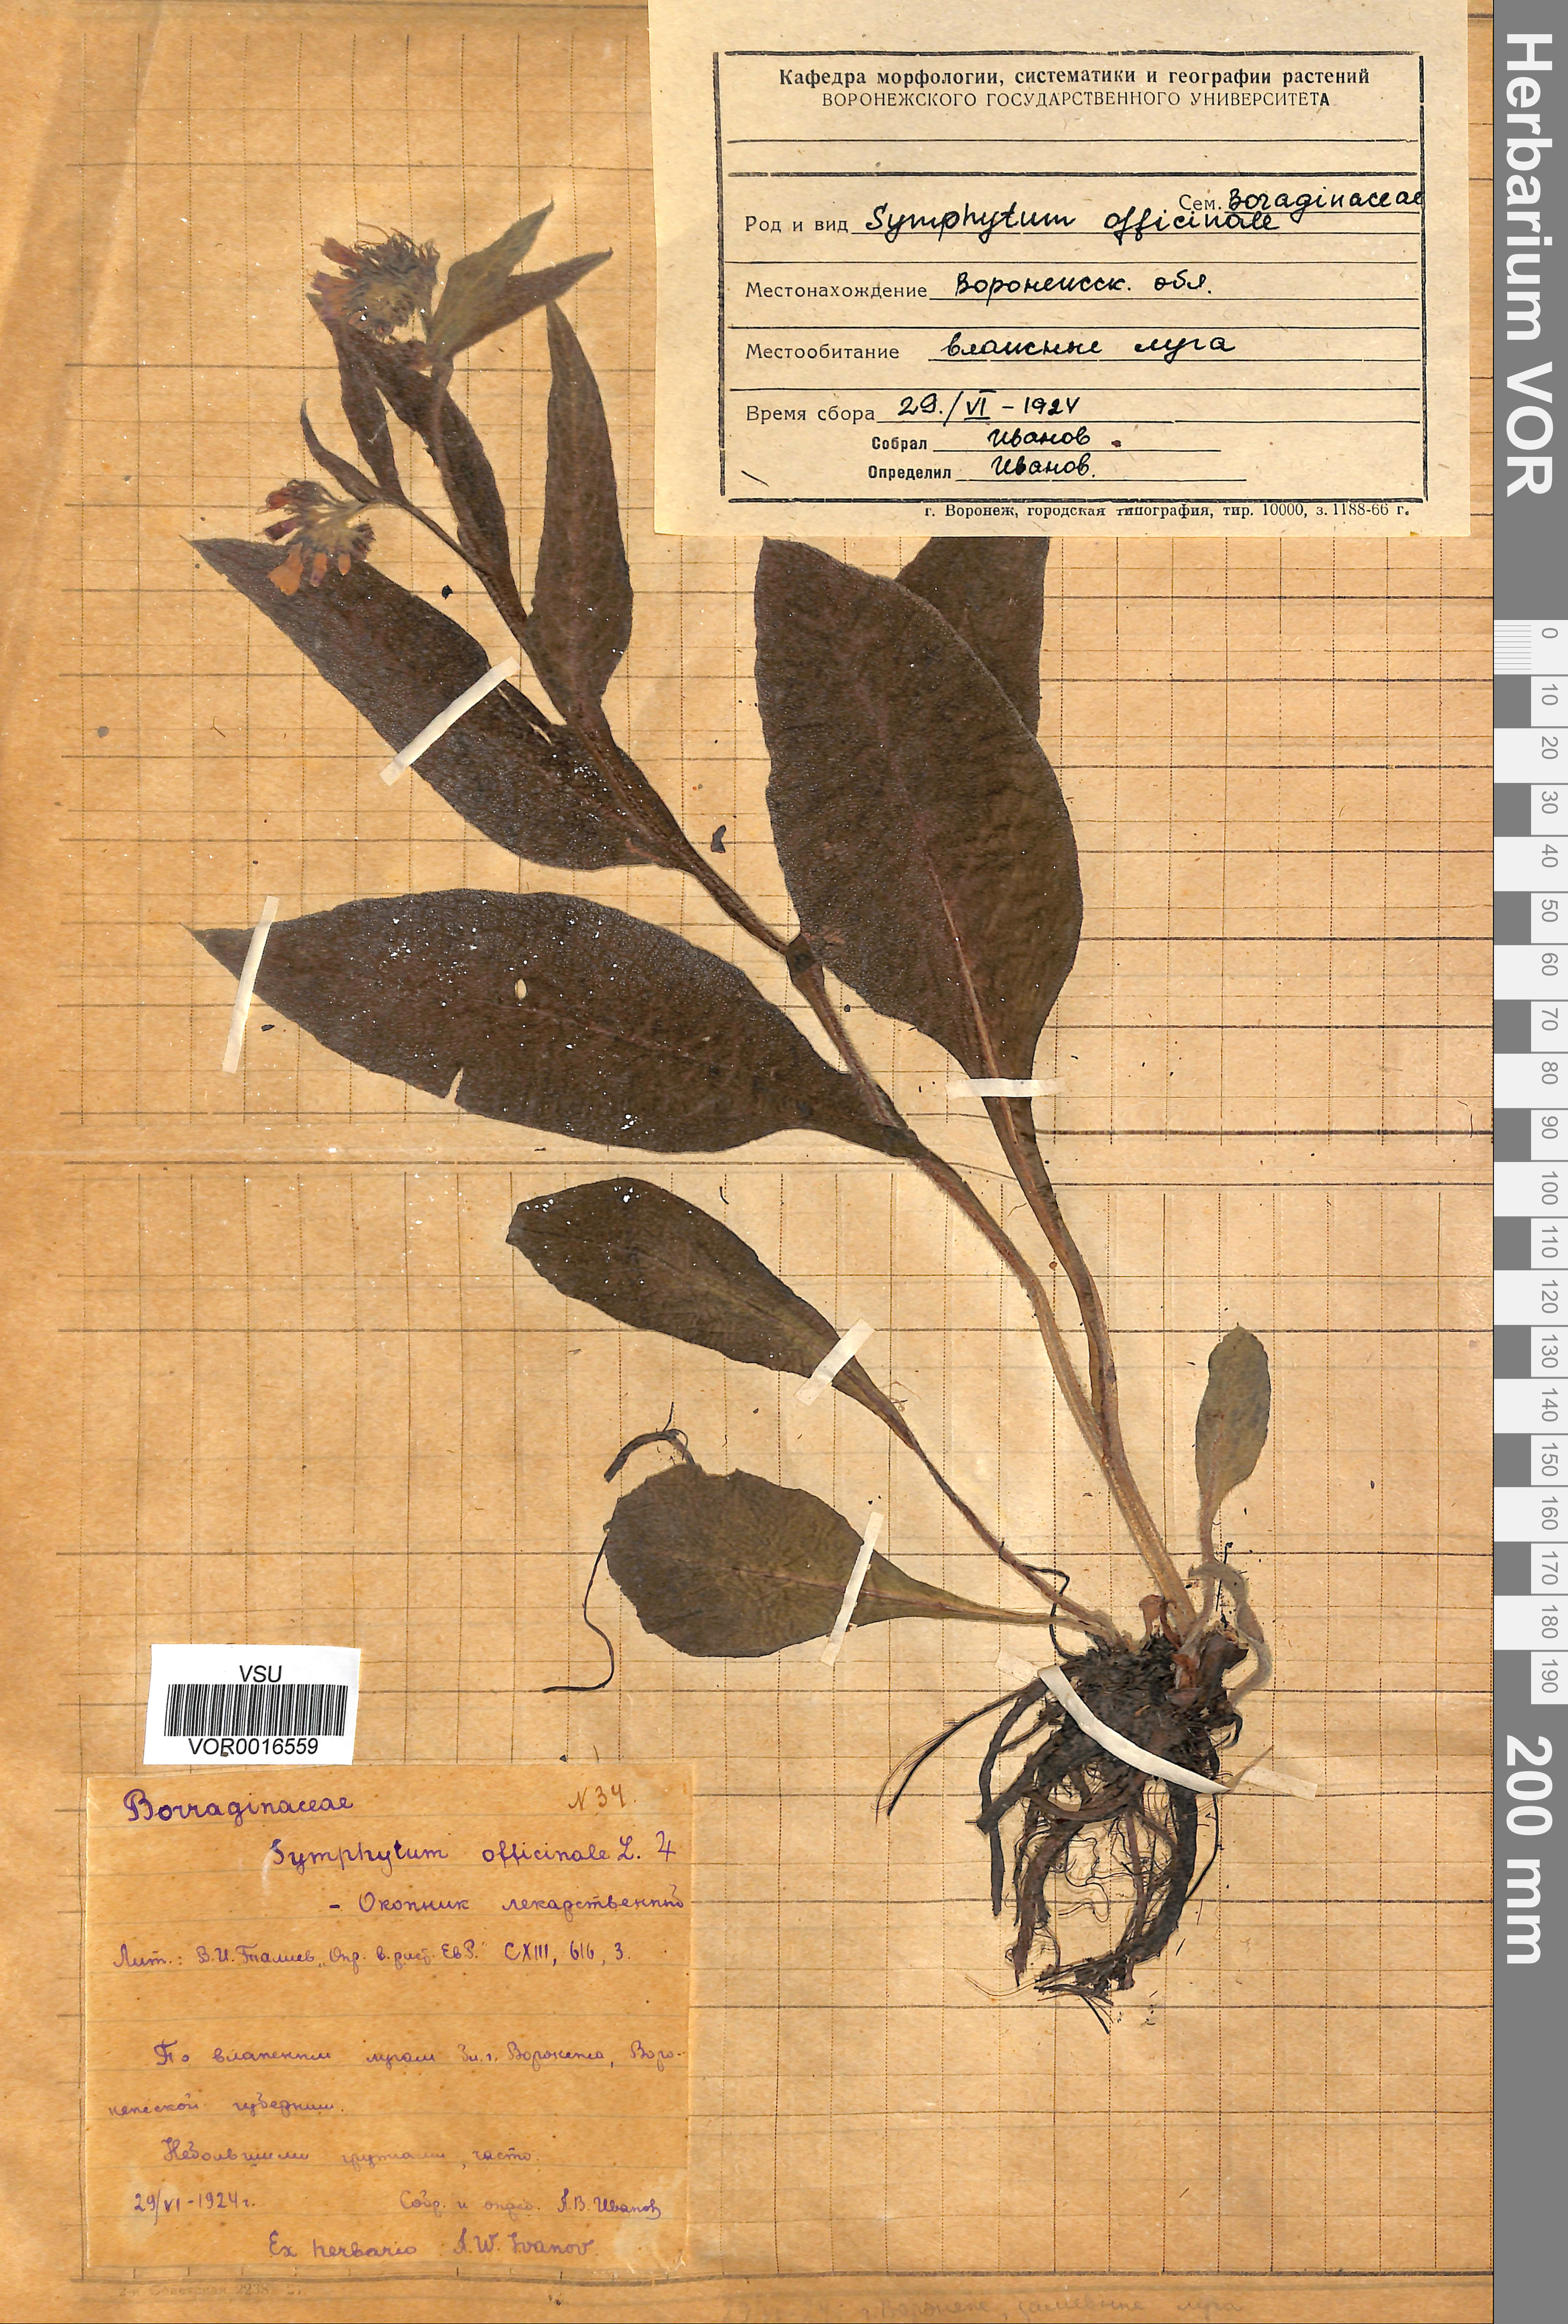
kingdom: Plantae
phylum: Tracheophyta
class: Magnoliopsida
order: Boraginales
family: Boraginaceae
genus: Symphytum
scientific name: Symphytum officinale
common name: Common comfrey
